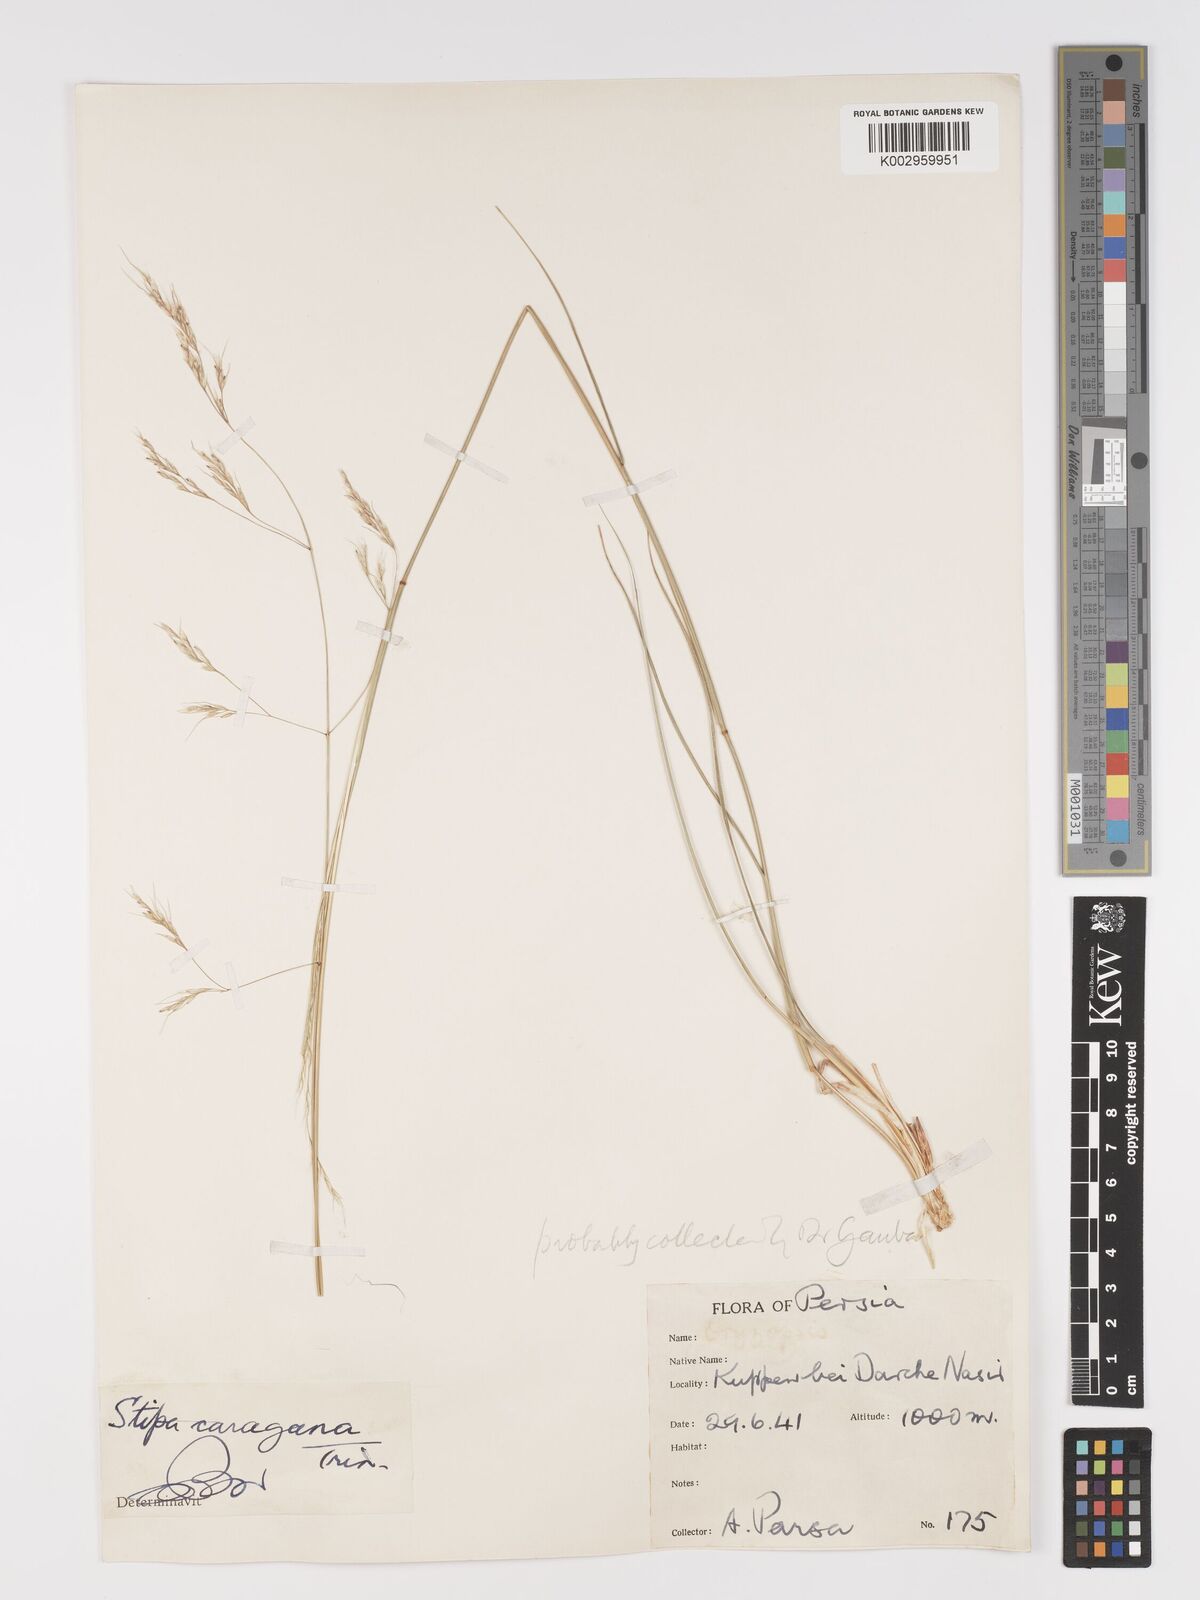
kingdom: Plantae
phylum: Tracheophyta
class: Liliopsida
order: Poales
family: Poaceae
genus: Stipa
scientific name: Stipa conferta
